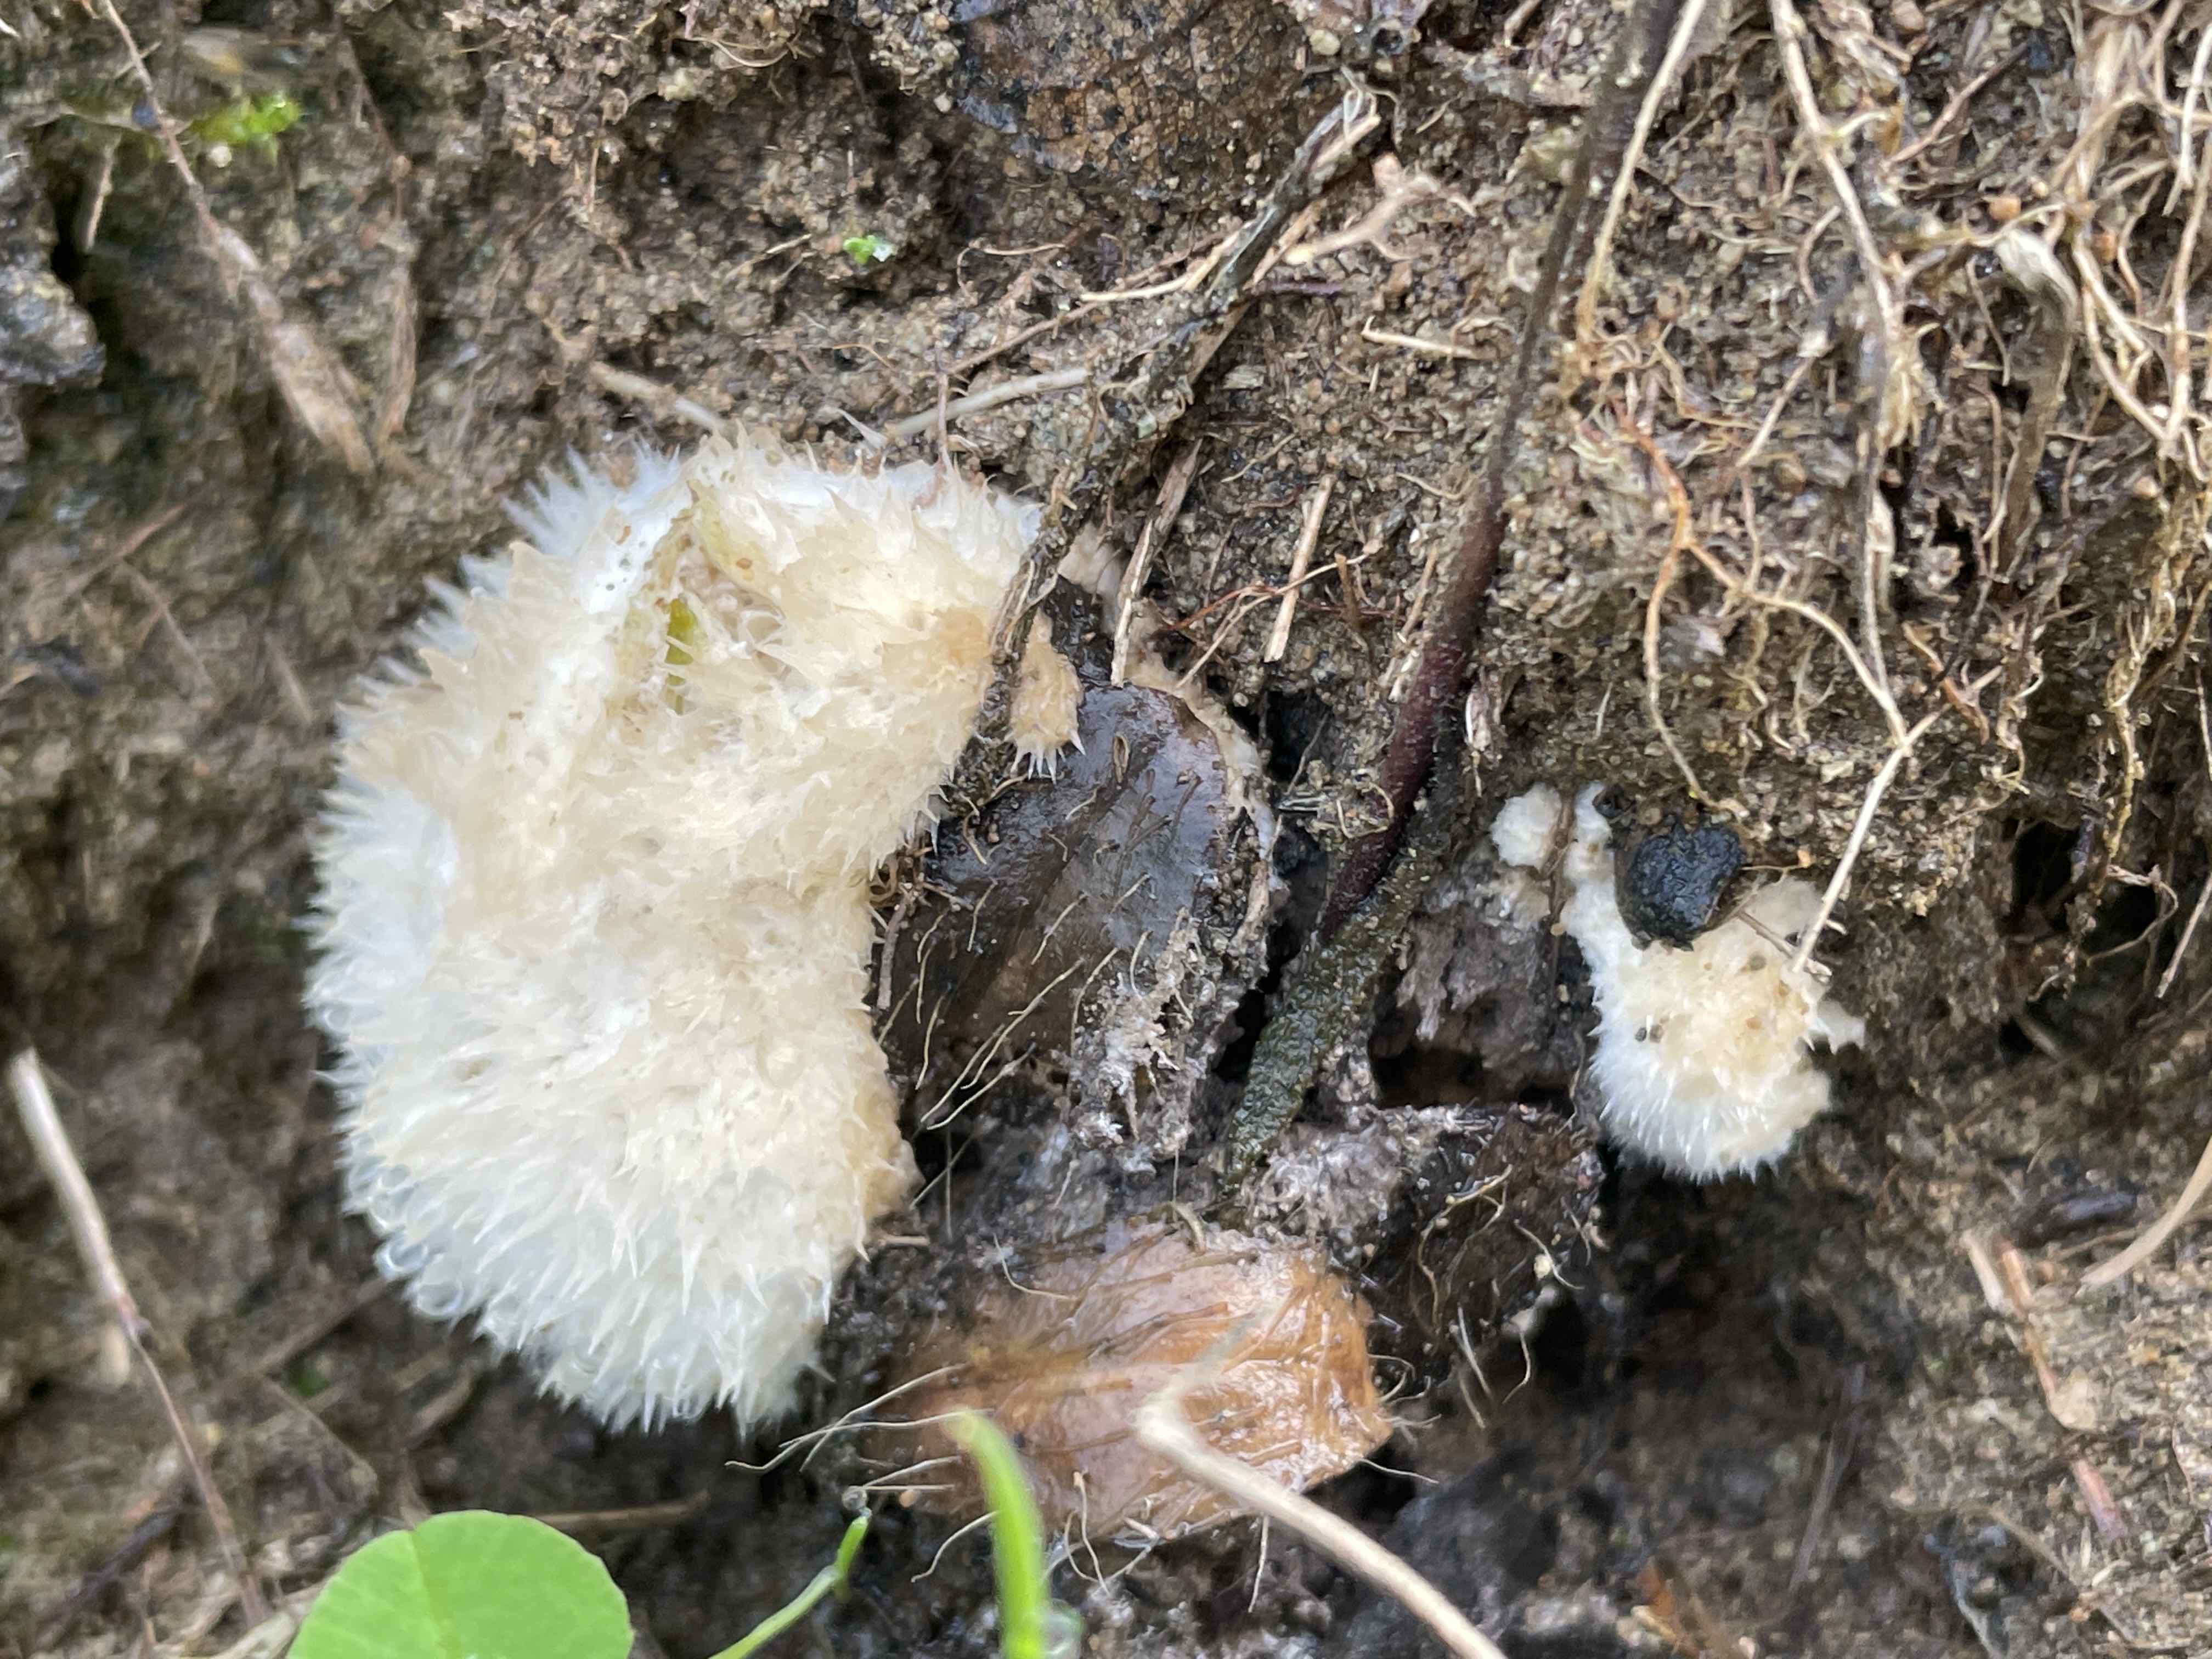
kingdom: Fungi
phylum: Basidiomycota
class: Agaricomycetes
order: Polyporales
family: Dacryobolaceae
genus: Postia
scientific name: Postia ptychogaster
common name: støvende kødporesvamp
